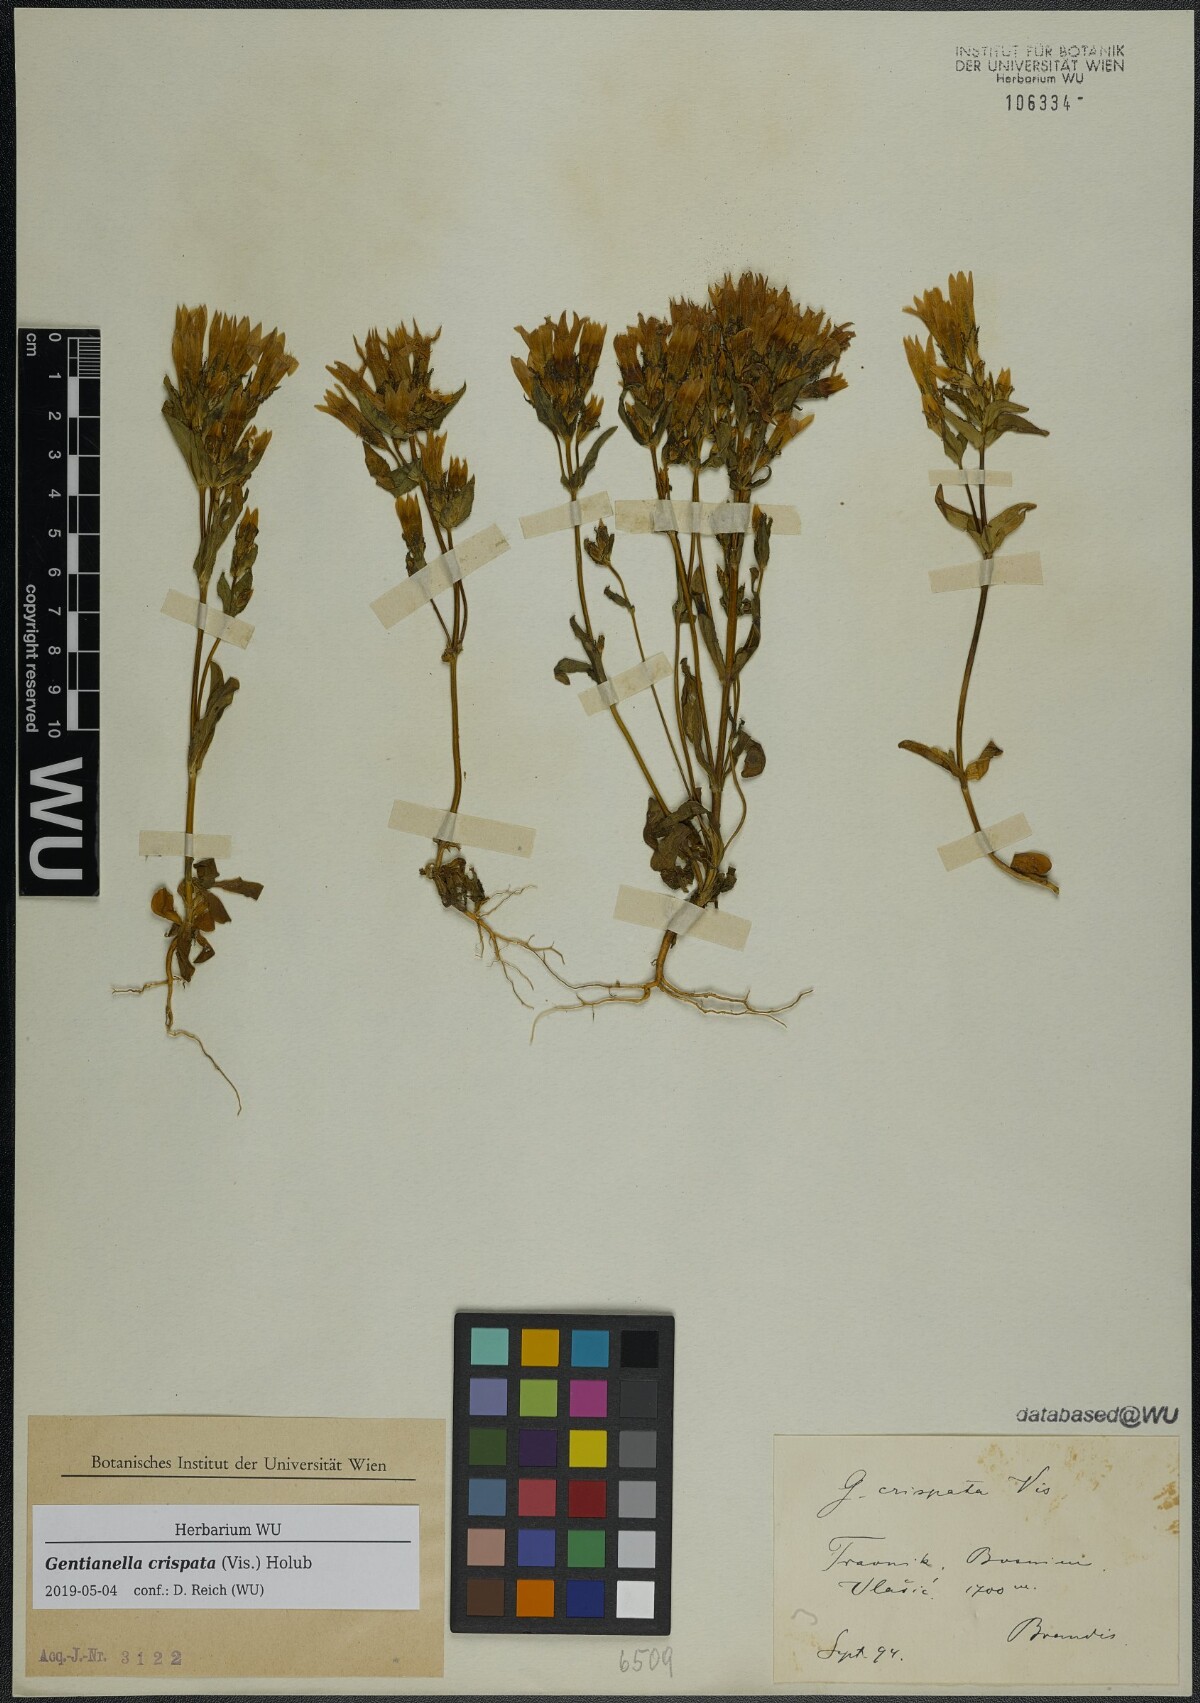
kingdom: Plantae
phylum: Tracheophyta
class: Magnoliopsida
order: Gentianales
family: Gentianaceae
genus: Gentianella
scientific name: Gentianella crispata
